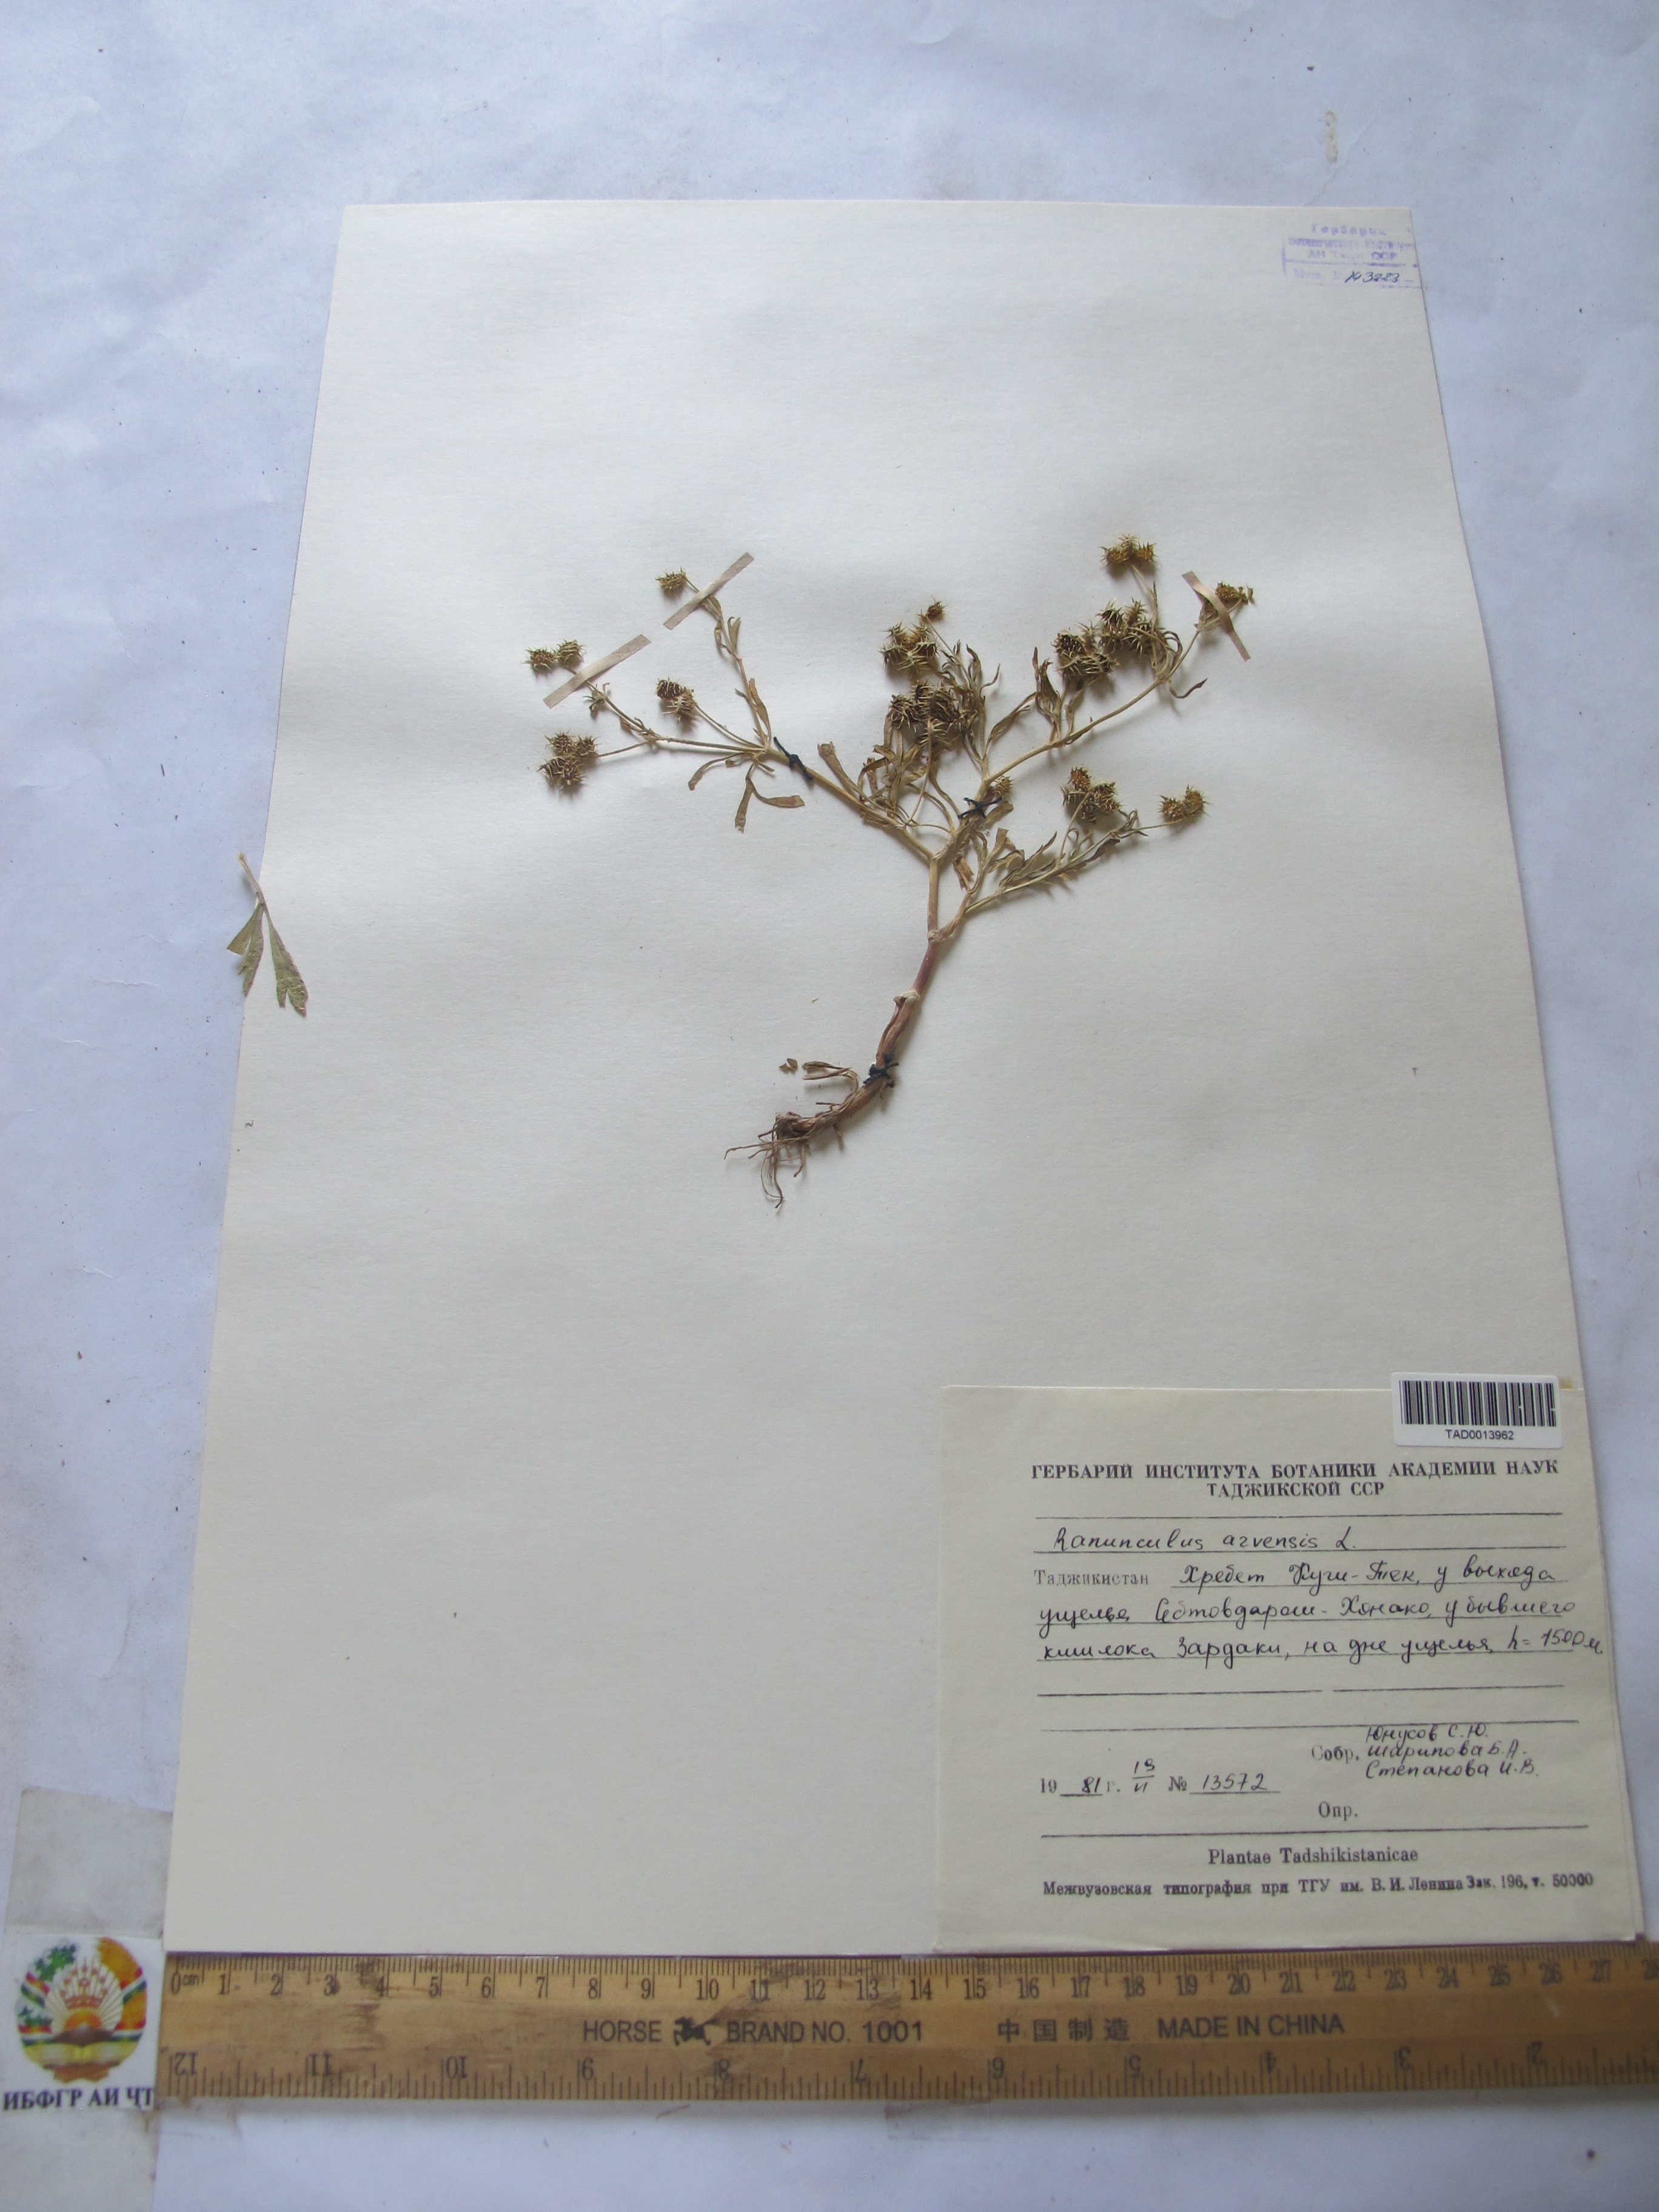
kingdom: Plantae
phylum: Tracheophyta
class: Magnoliopsida
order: Ranunculales
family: Ranunculaceae
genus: Ranunculus
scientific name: Ranunculus arvensis
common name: Corn buttercup
